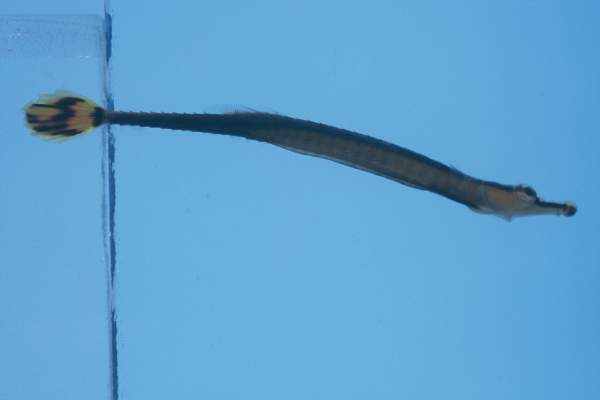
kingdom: Animalia
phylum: Chordata
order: Syngnathiformes
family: Syngnathidae
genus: Doryrhamphus
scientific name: Doryrhamphus excisus
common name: Bluestripe pipefish
